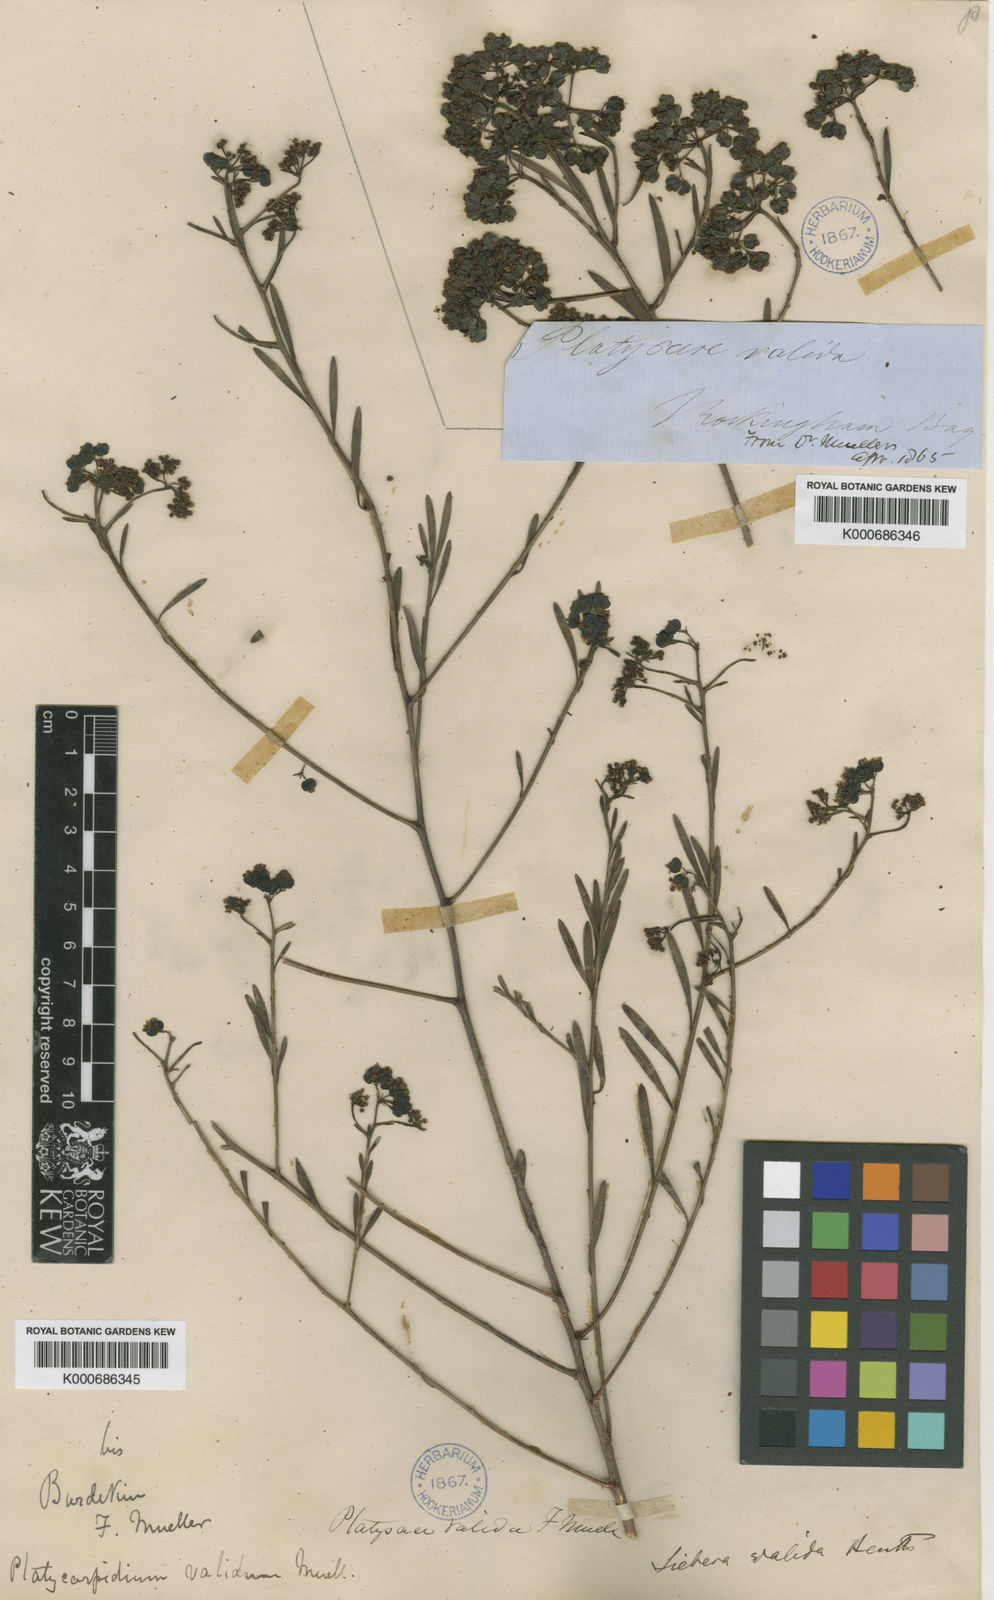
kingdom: Plantae
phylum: Tracheophyta
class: Magnoliopsida
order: Apiales
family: Apiaceae
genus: Platysace
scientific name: Platysace valida
